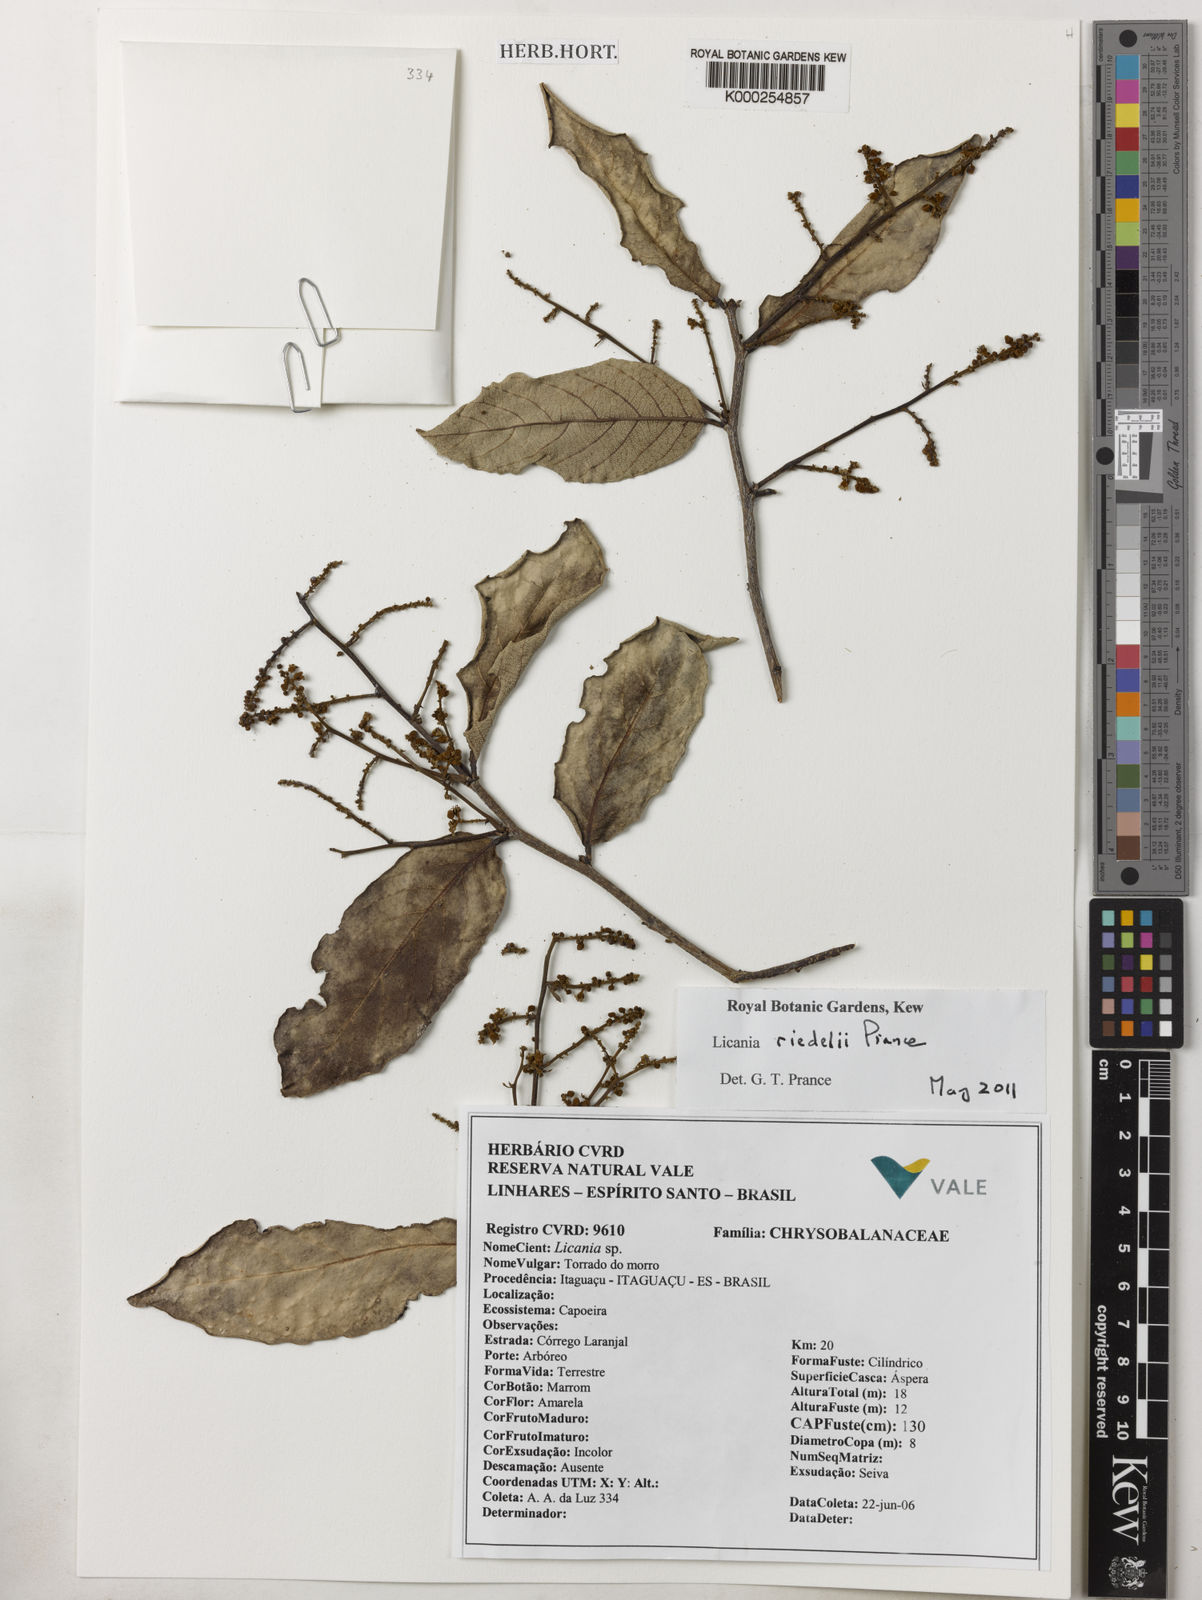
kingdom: Plantae
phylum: Tracheophyta
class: Magnoliopsida
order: Malpighiales
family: Chrysobalanaceae
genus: Licania
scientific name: Licania riedelii
